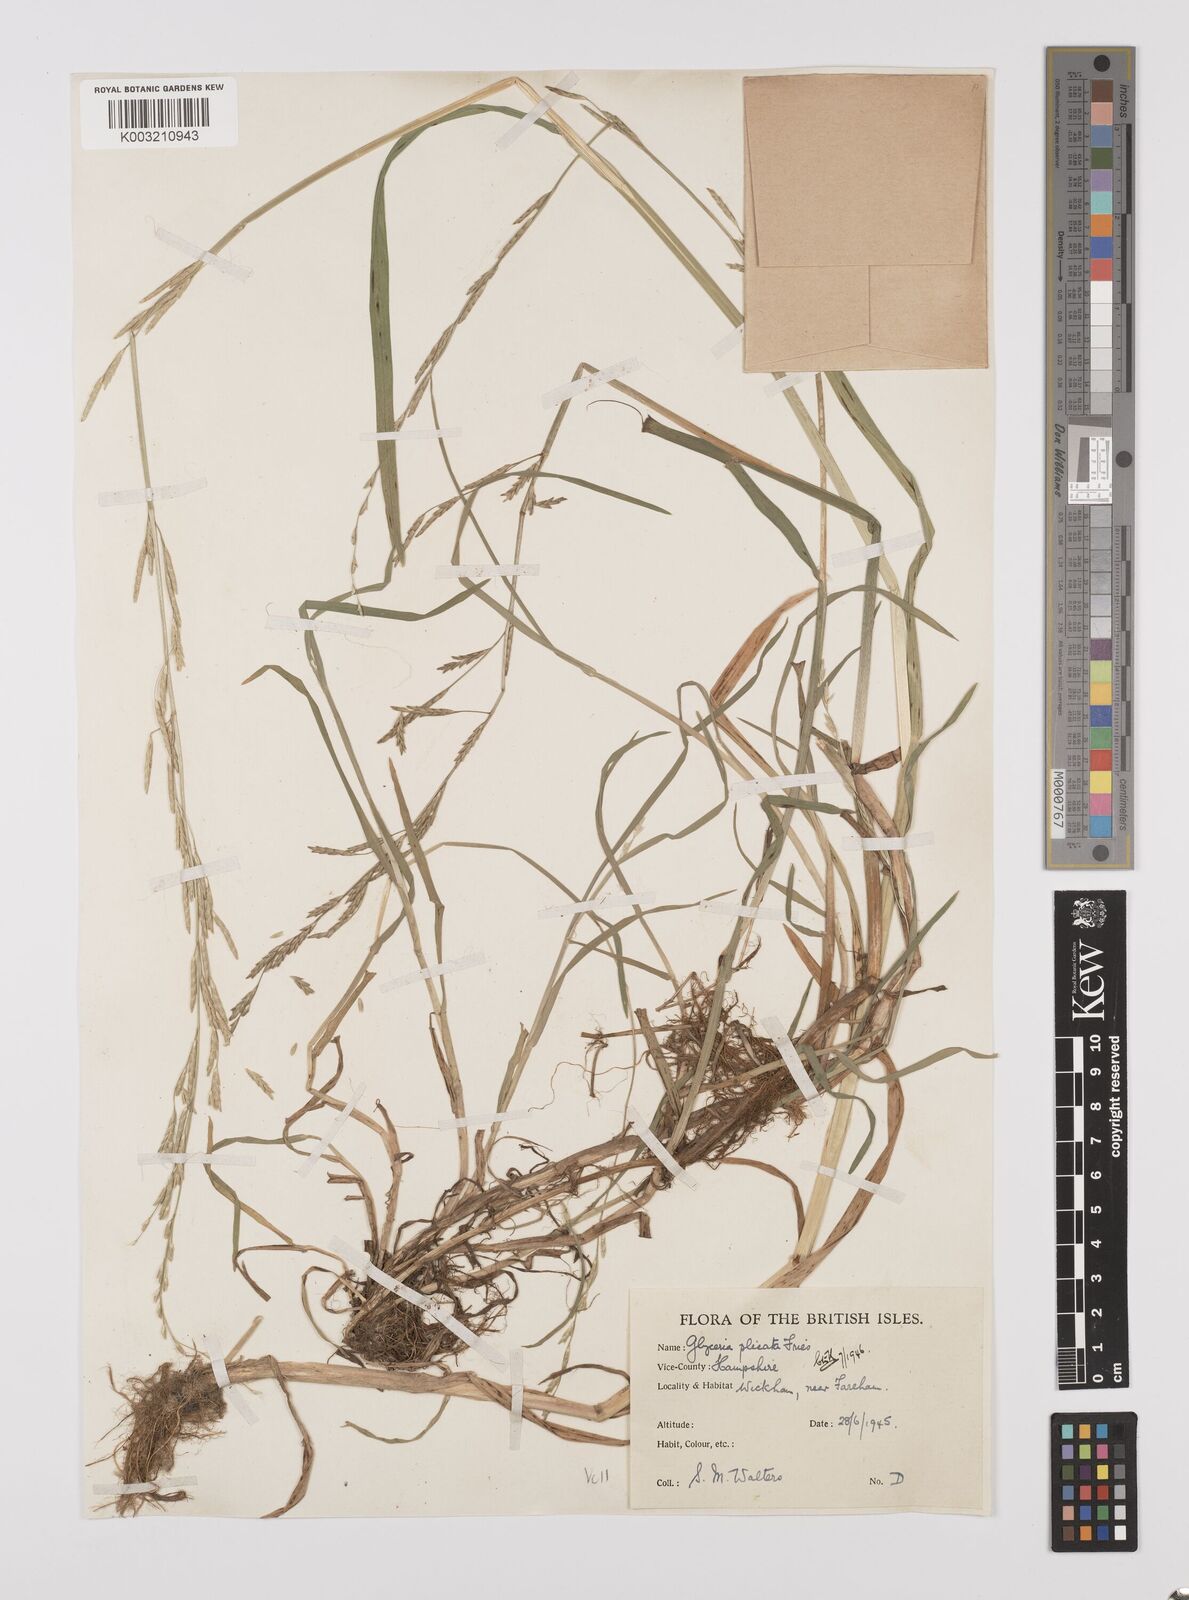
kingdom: Plantae
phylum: Tracheophyta
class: Liliopsida
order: Poales
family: Poaceae
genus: Glyceria
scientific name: Glyceria notata
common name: Plicate sweet-grass
